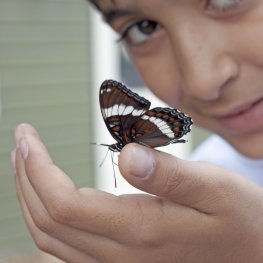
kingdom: Animalia
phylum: Arthropoda
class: Insecta
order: Lepidoptera
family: Nymphalidae
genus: Limenitis
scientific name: Limenitis arthemis
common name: Red-spotted Admiral
